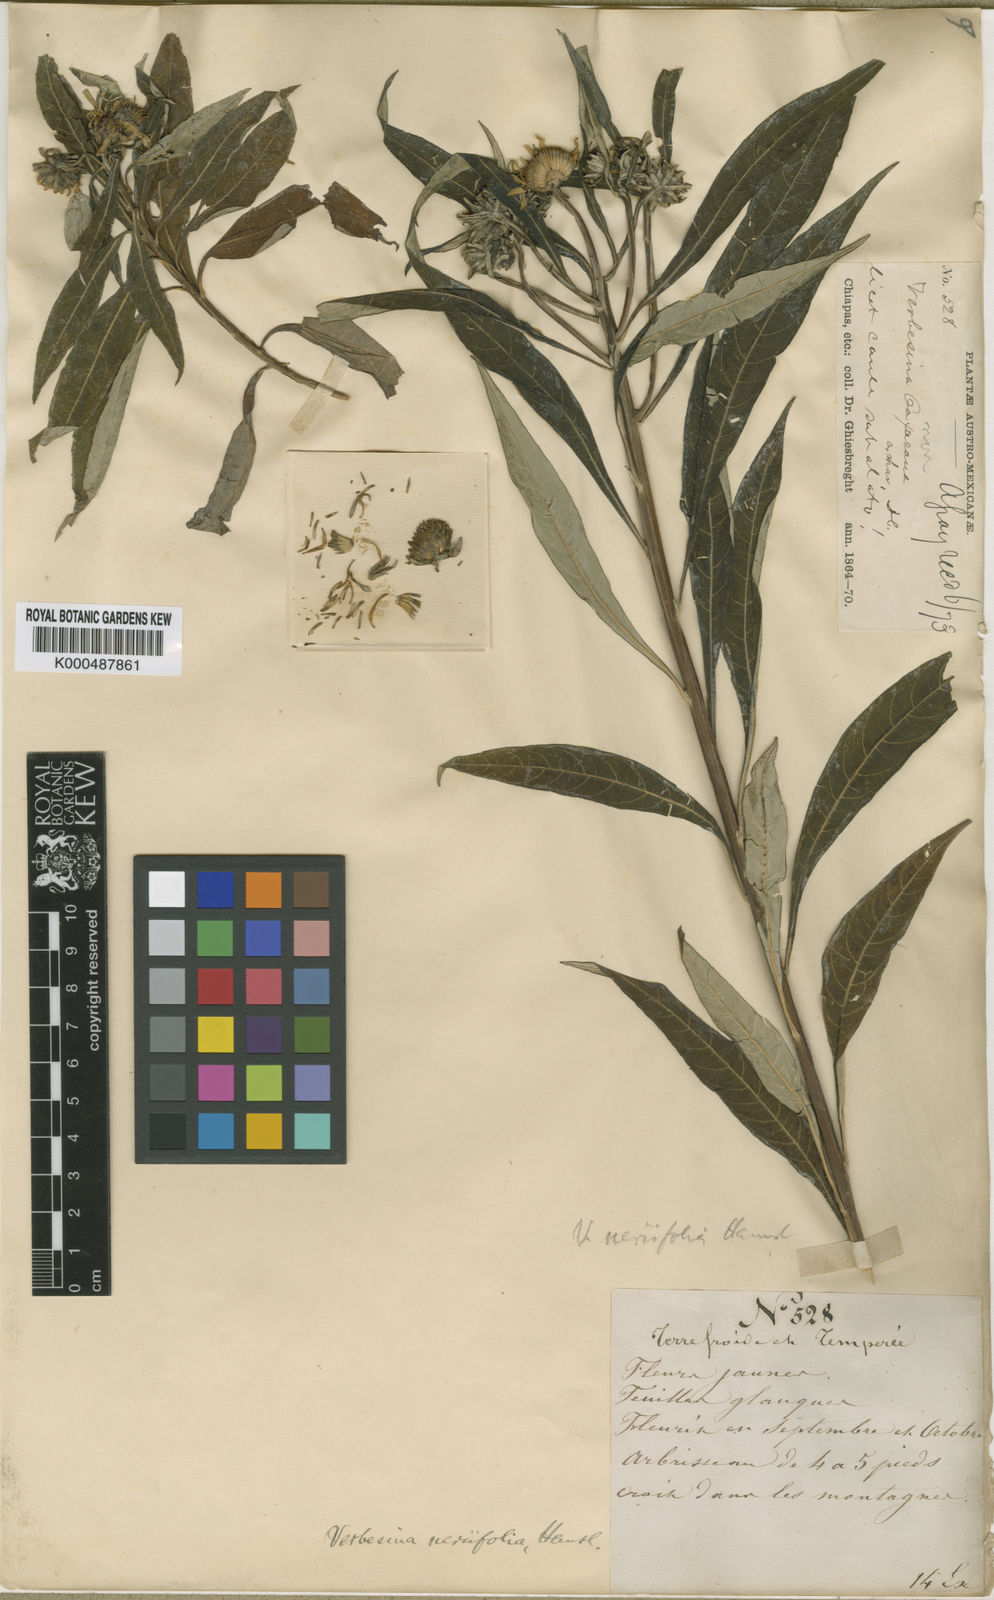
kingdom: Plantae
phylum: Tracheophyta
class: Magnoliopsida
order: Asterales
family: Asteraceae
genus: Verbesina
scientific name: Verbesina neriifolia
